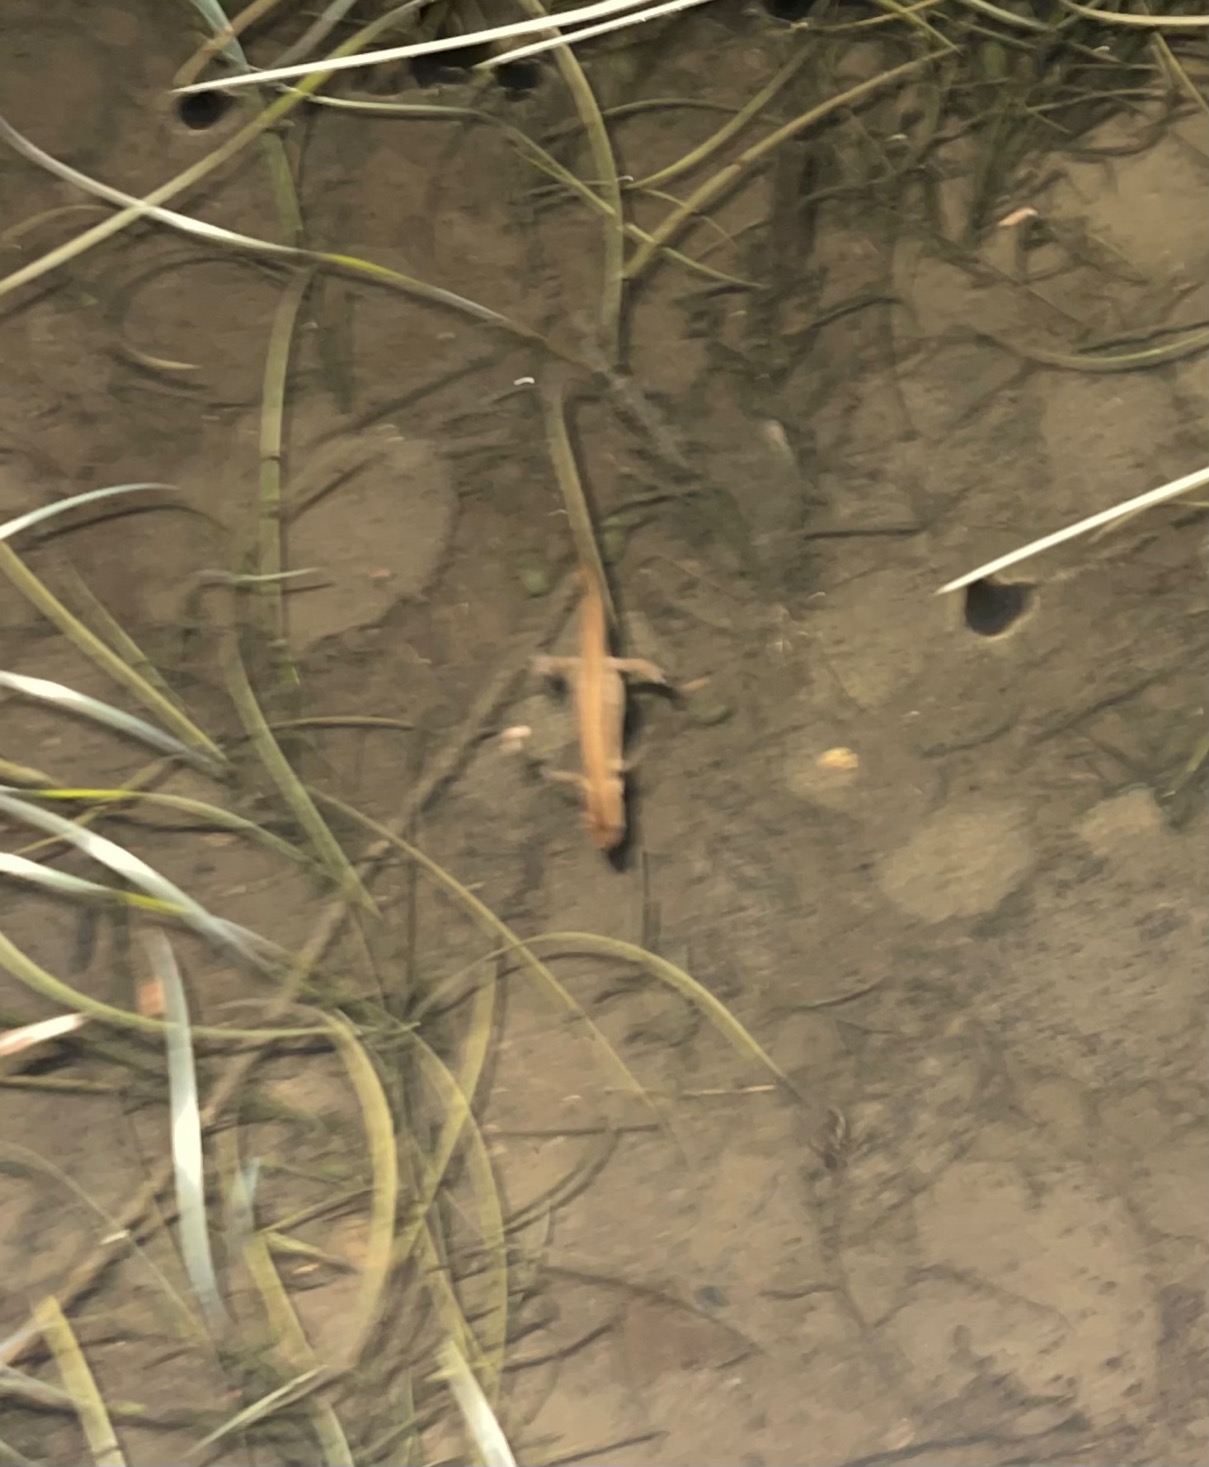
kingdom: Animalia
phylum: Chordata
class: Amphibia
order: Caudata
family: Salamandridae
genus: Lissotriton
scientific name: Lissotriton vulgaris
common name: Lille vandsalamander
